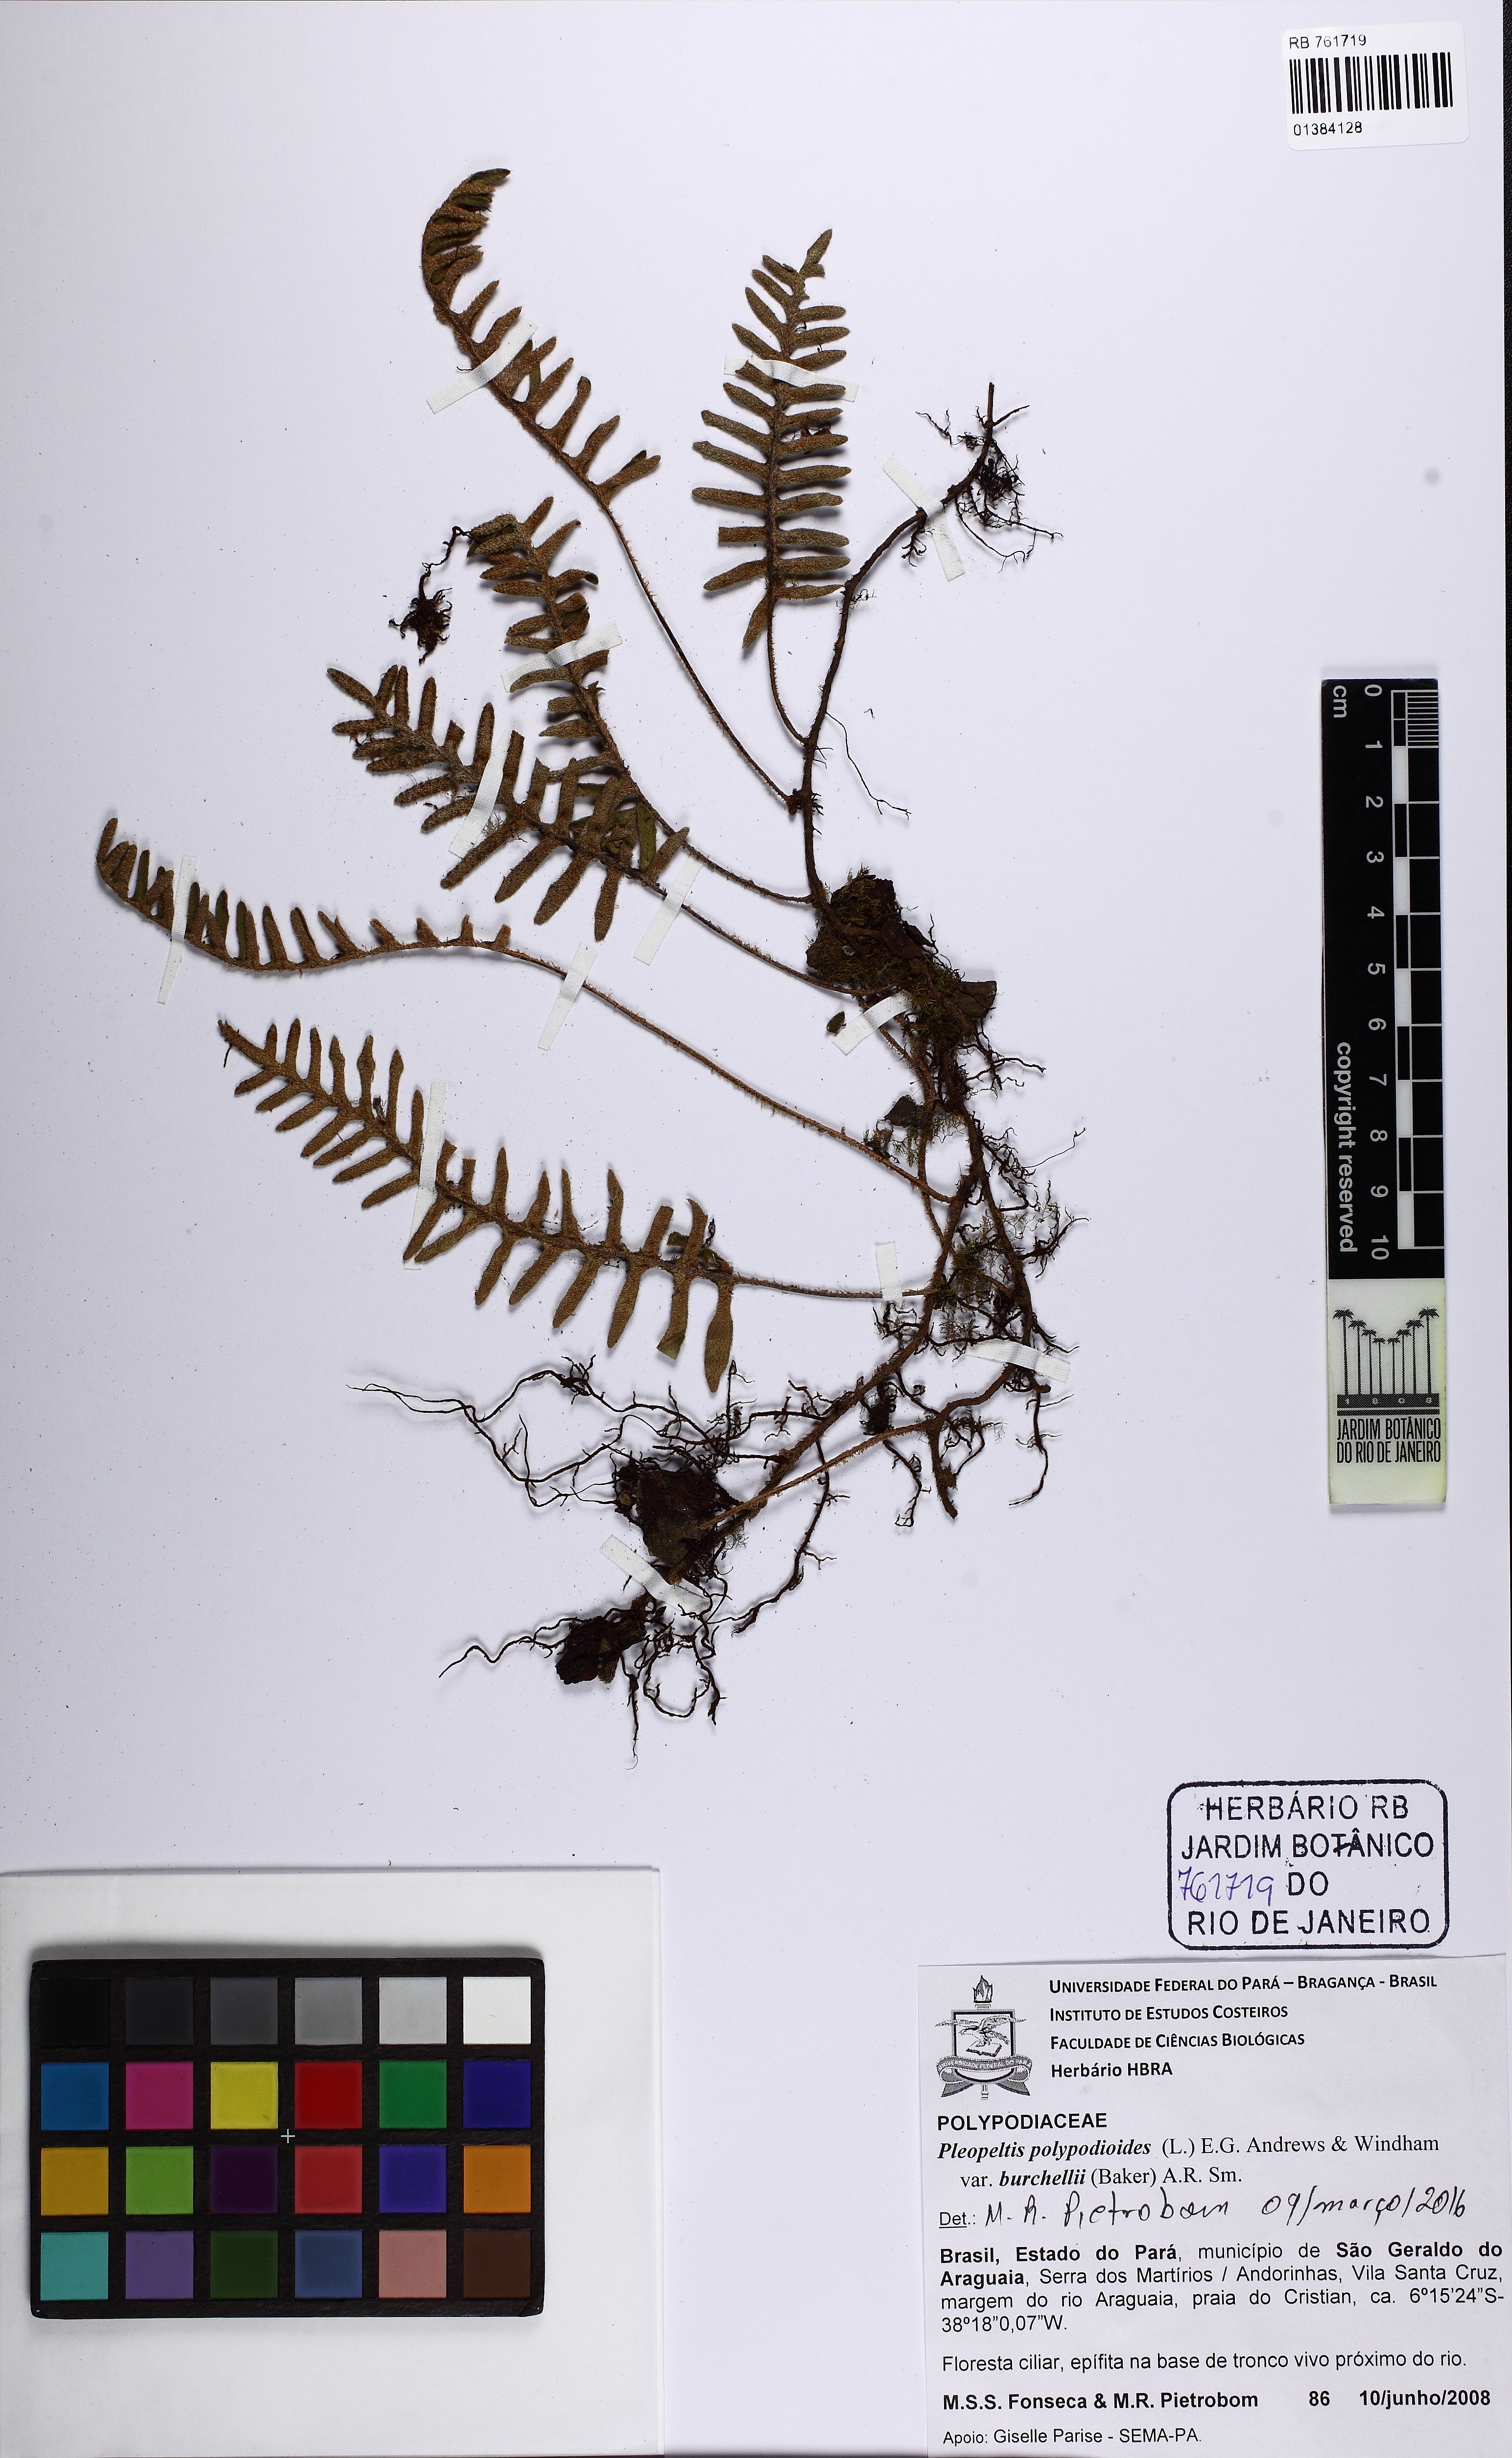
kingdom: Plantae
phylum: Tracheophyta
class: Polypodiopsida
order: Polypodiales
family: Polypodiaceae
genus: Pleopeltis
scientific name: Pleopeltis burchellii
